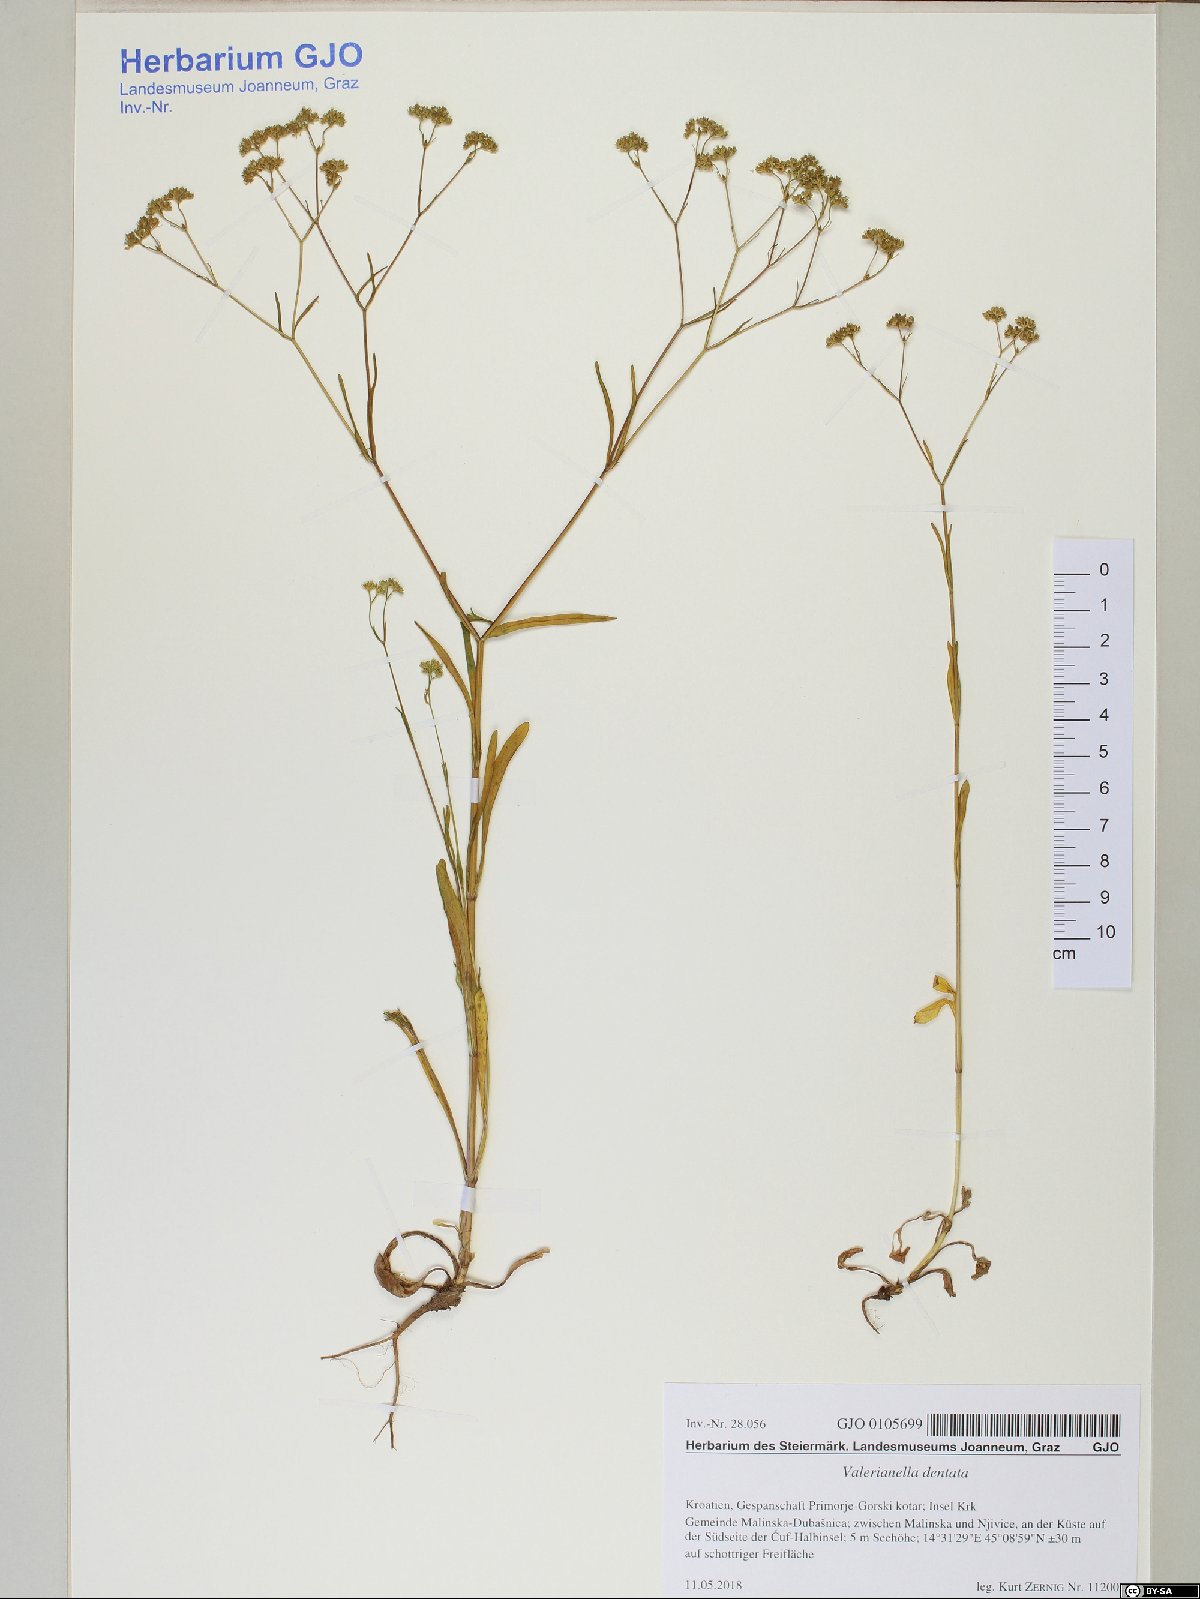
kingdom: Plantae
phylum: Tracheophyta
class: Magnoliopsida
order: Dipsacales
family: Caprifoliaceae
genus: Valerianella
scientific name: Valerianella dentata
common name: Narrow-fruited cornsalad
